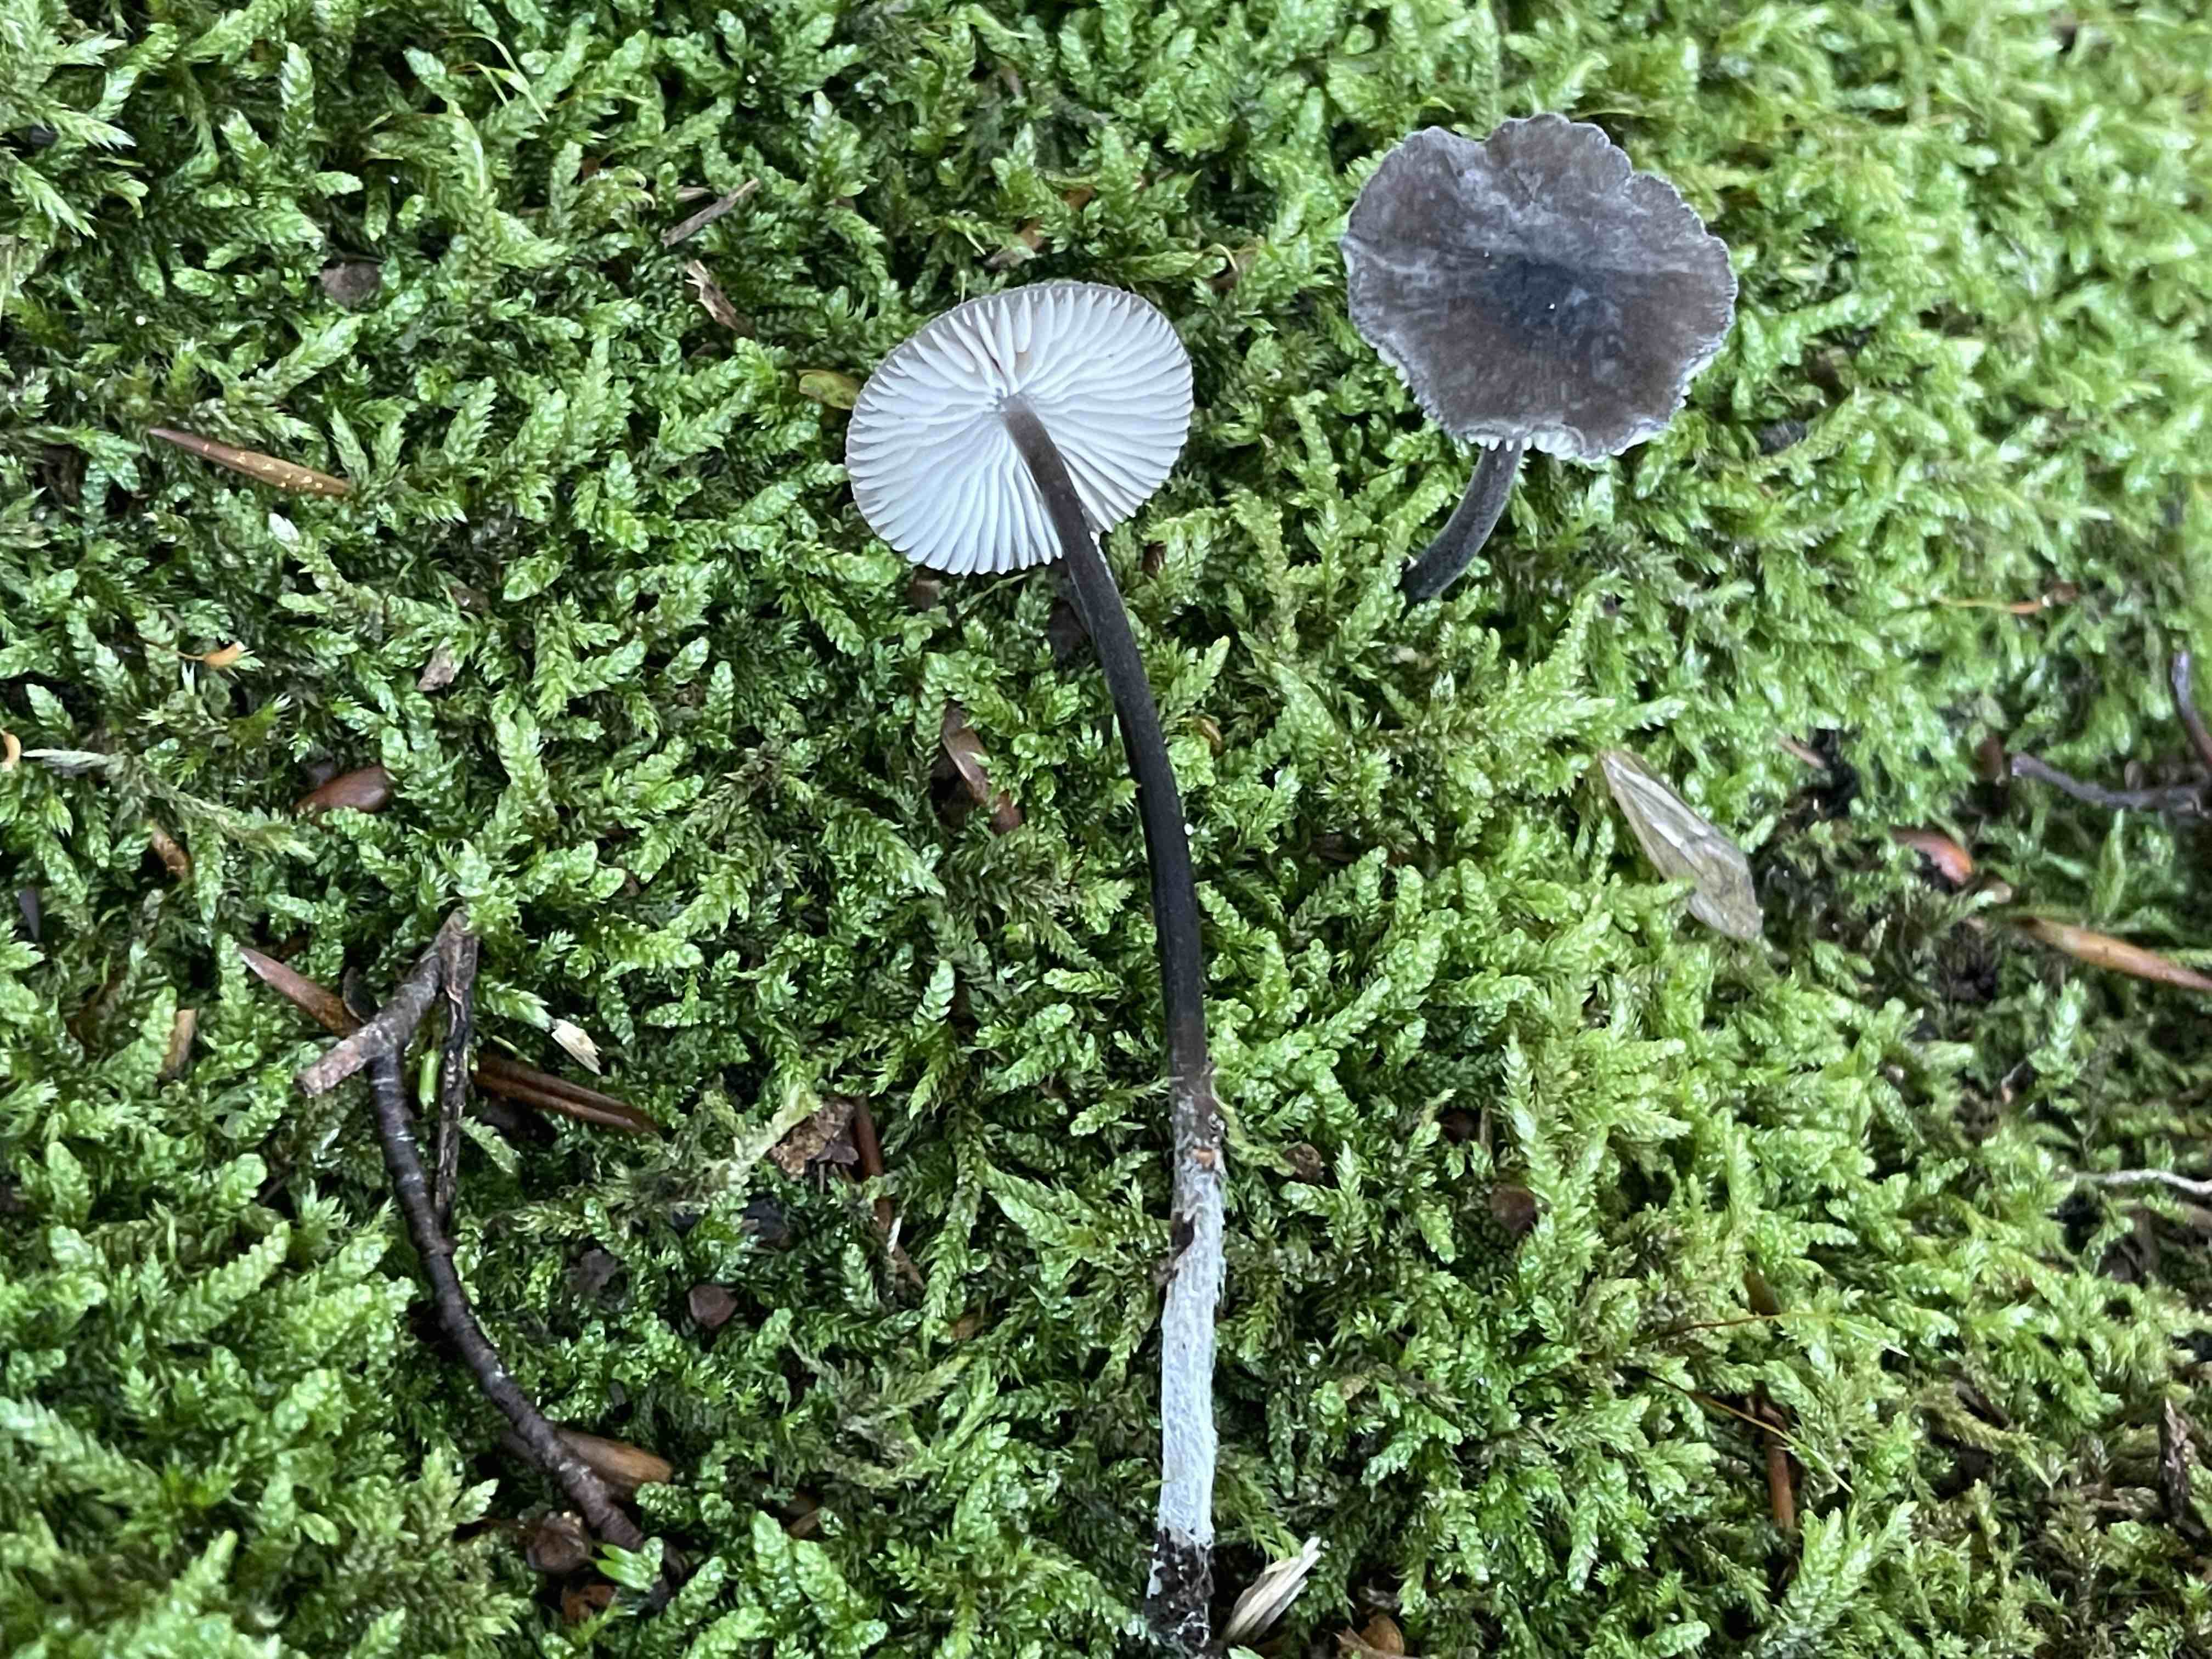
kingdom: Fungi
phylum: Basidiomycota
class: Agaricomycetes
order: Agaricales
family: Mycenaceae
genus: Mycena
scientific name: Mycena galopus
